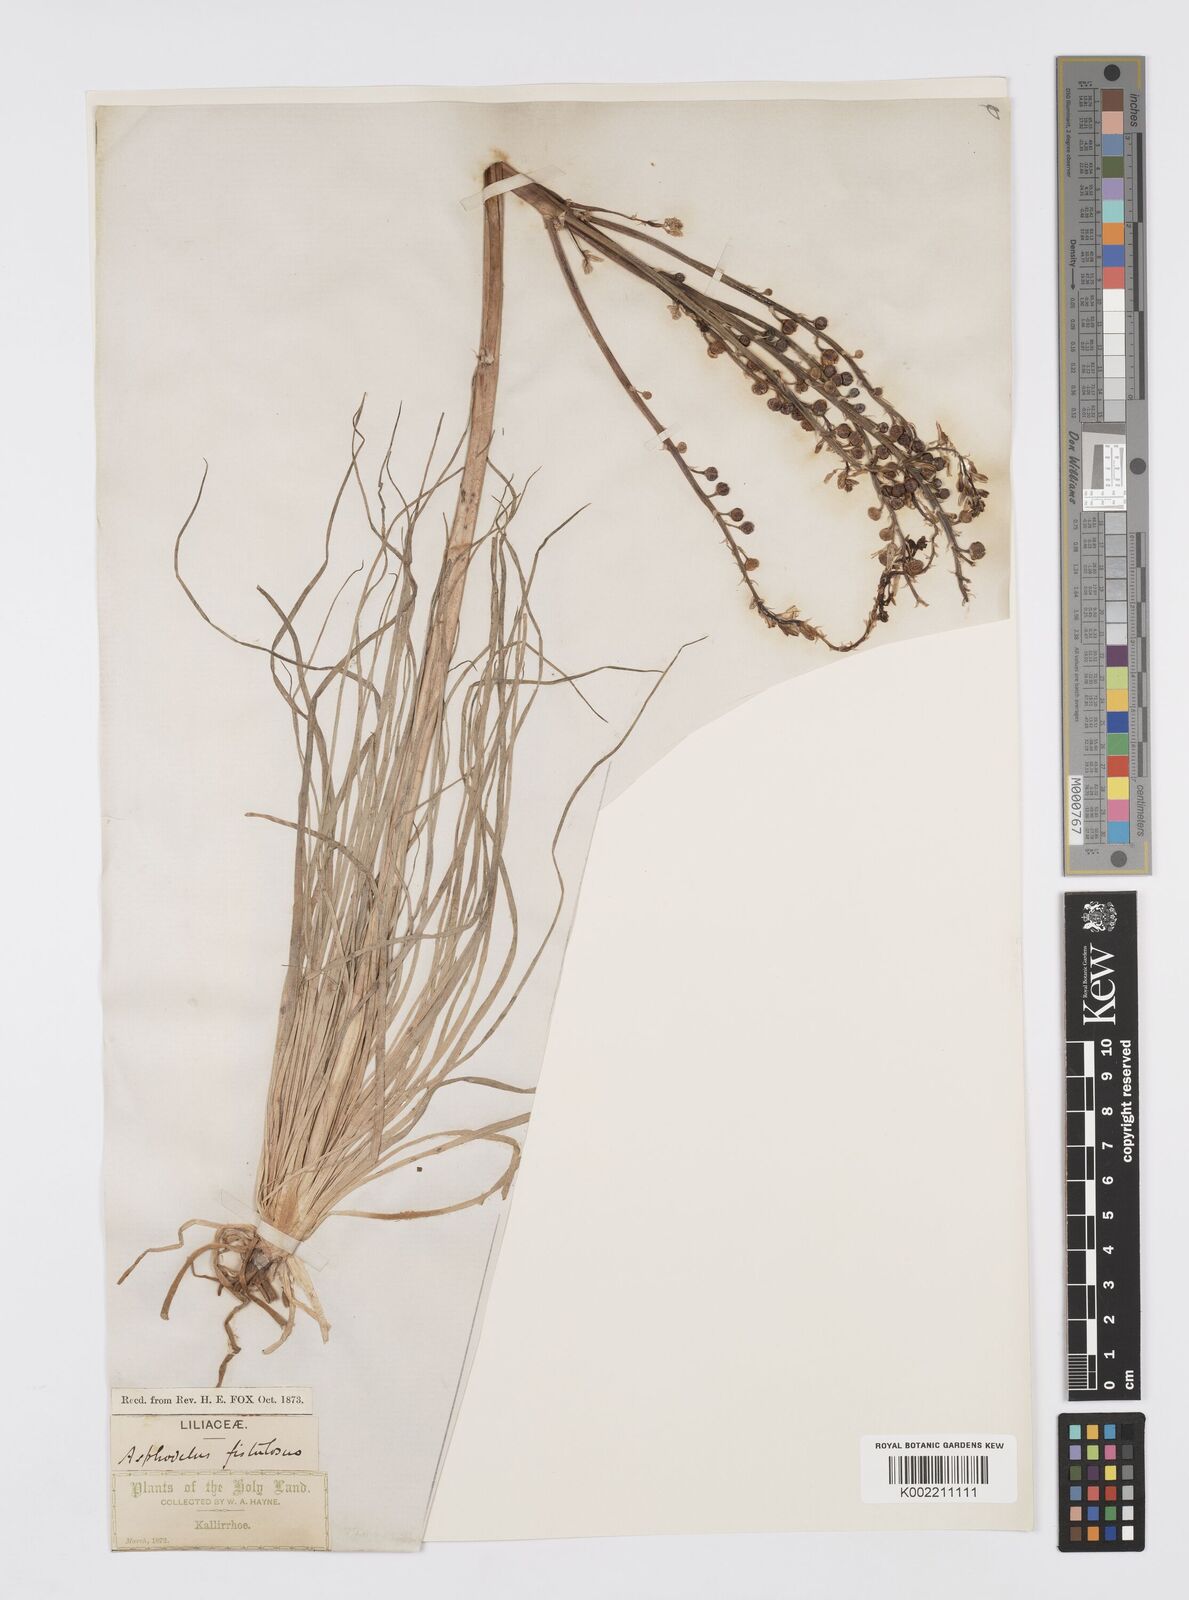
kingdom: Plantae
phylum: Tracheophyta
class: Liliopsida
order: Asparagales
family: Asphodelaceae
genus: Asphodelus
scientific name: Asphodelus fistulosus
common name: Onionweed
